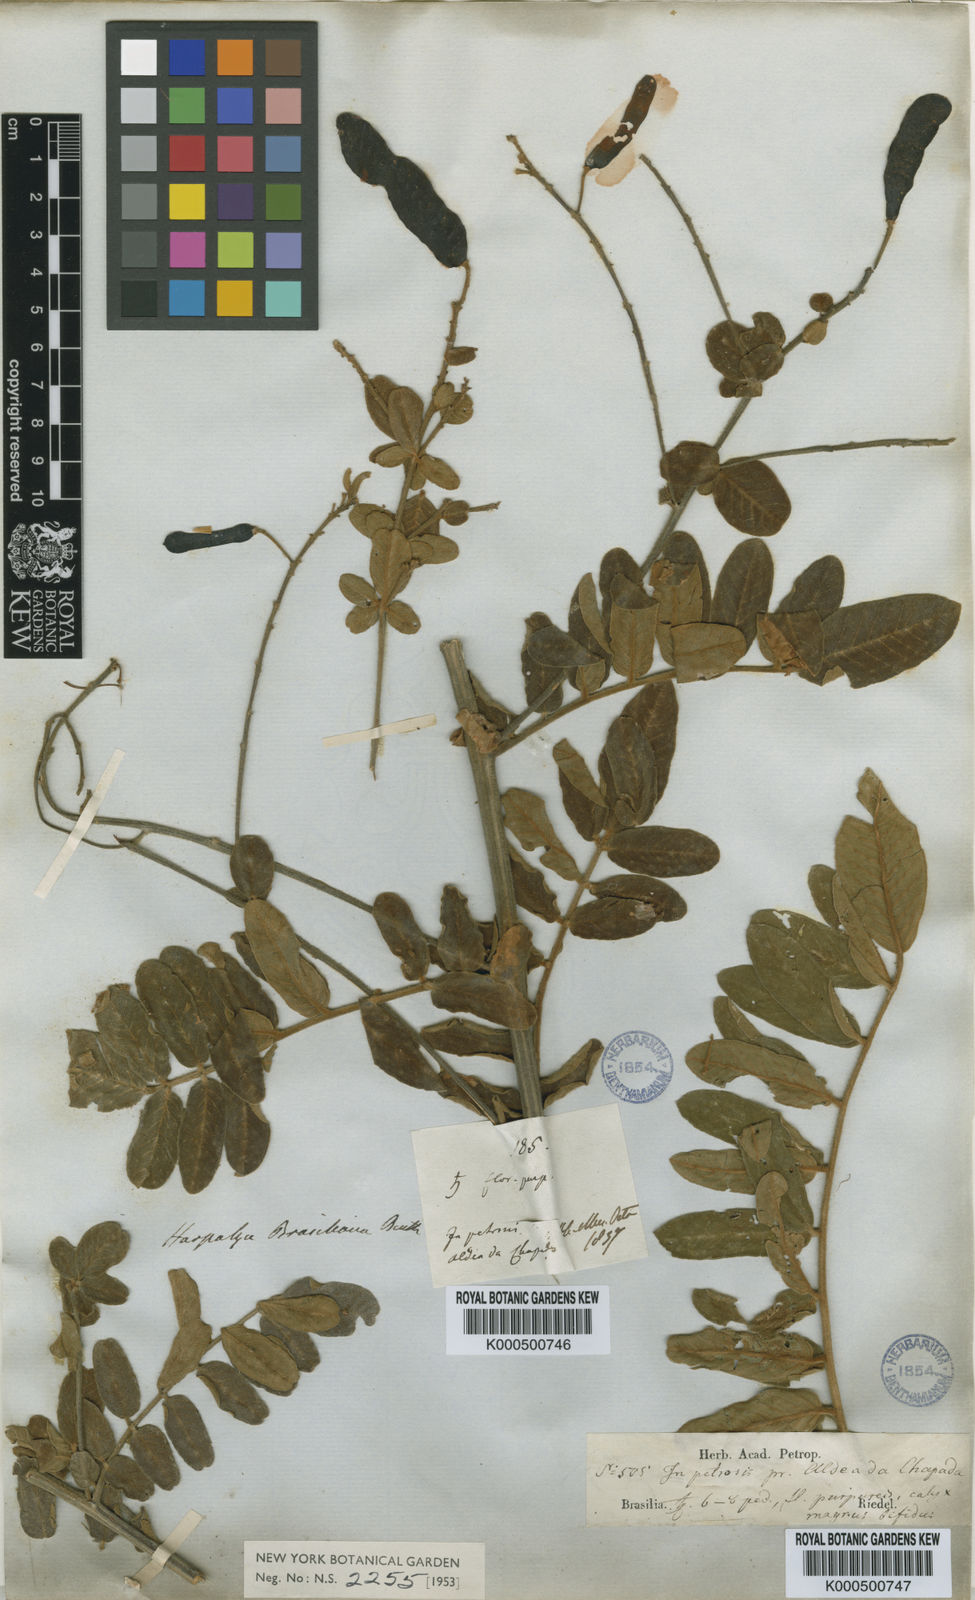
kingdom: Plantae
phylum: Tracheophyta
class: Magnoliopsida
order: Fabales
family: Fabaceae
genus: Harpalyce
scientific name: Harpalyce brasiliana
